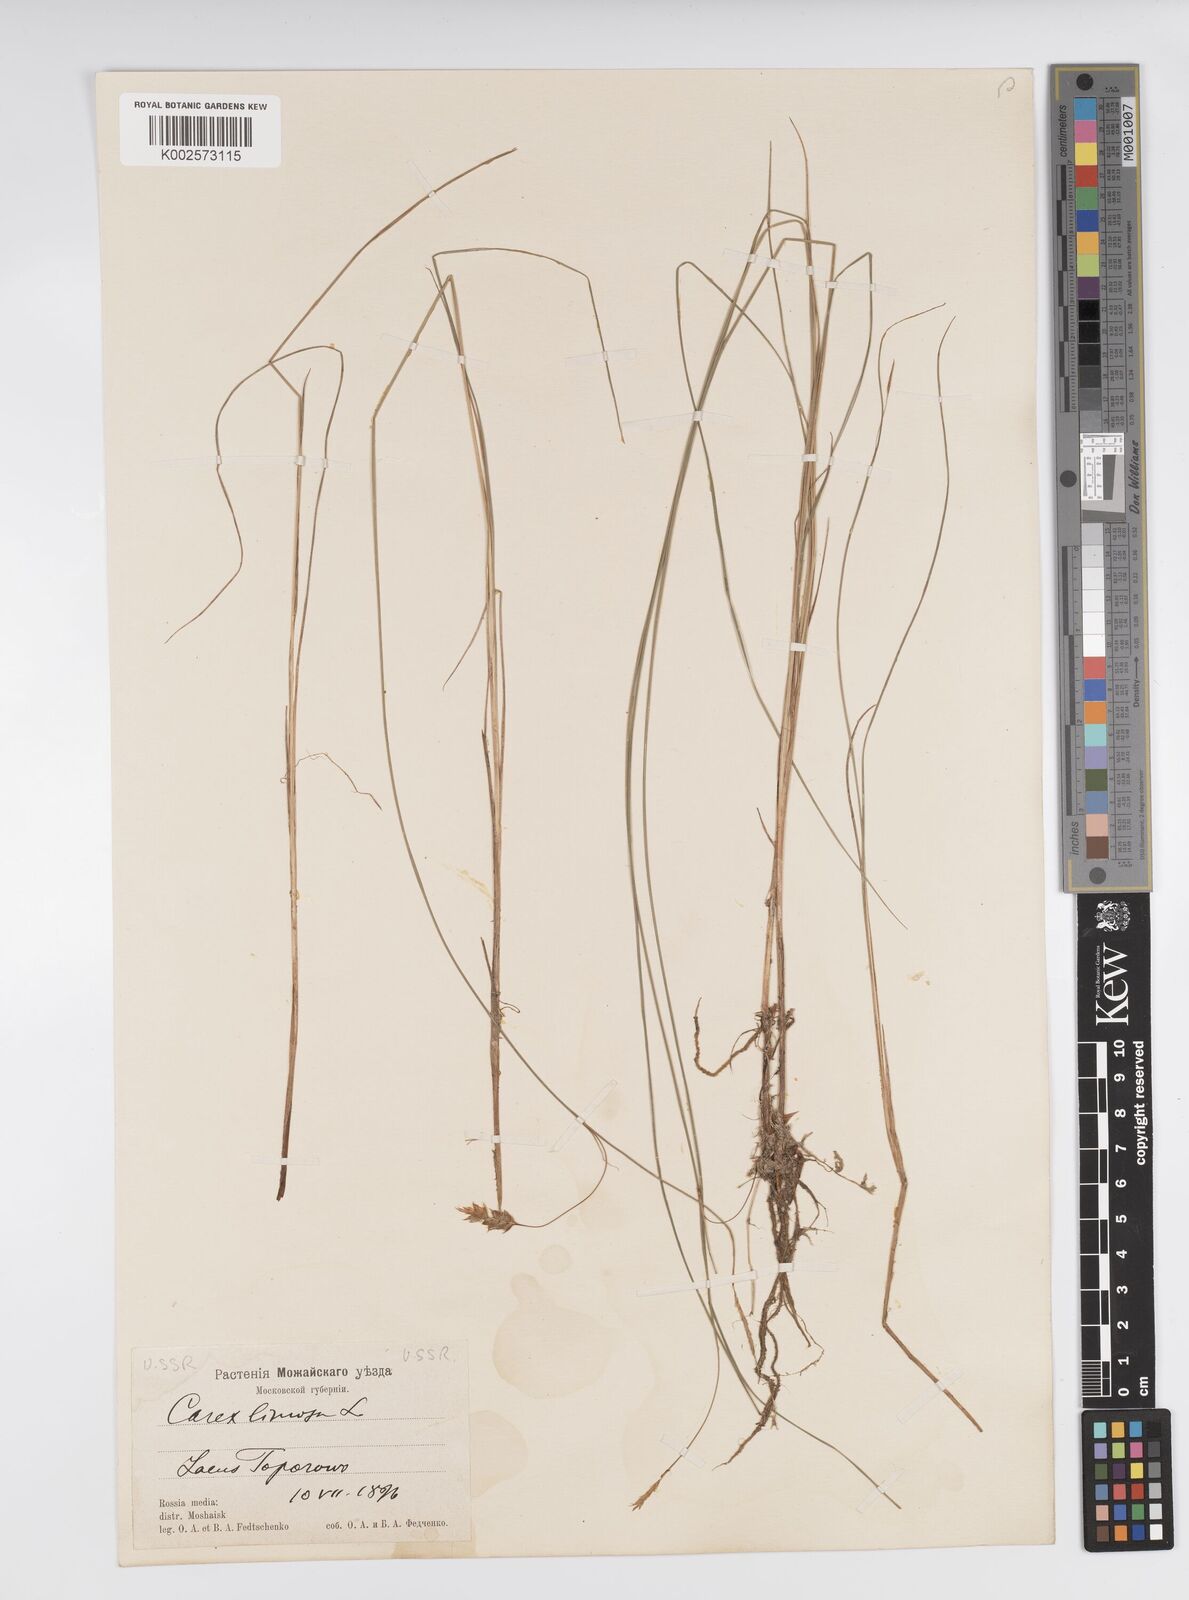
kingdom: Plantae
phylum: Tracheophyta
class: Liliopsida
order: Poales
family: Cyperaceae
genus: Carex
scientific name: Carex limosa
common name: Bog sedge
